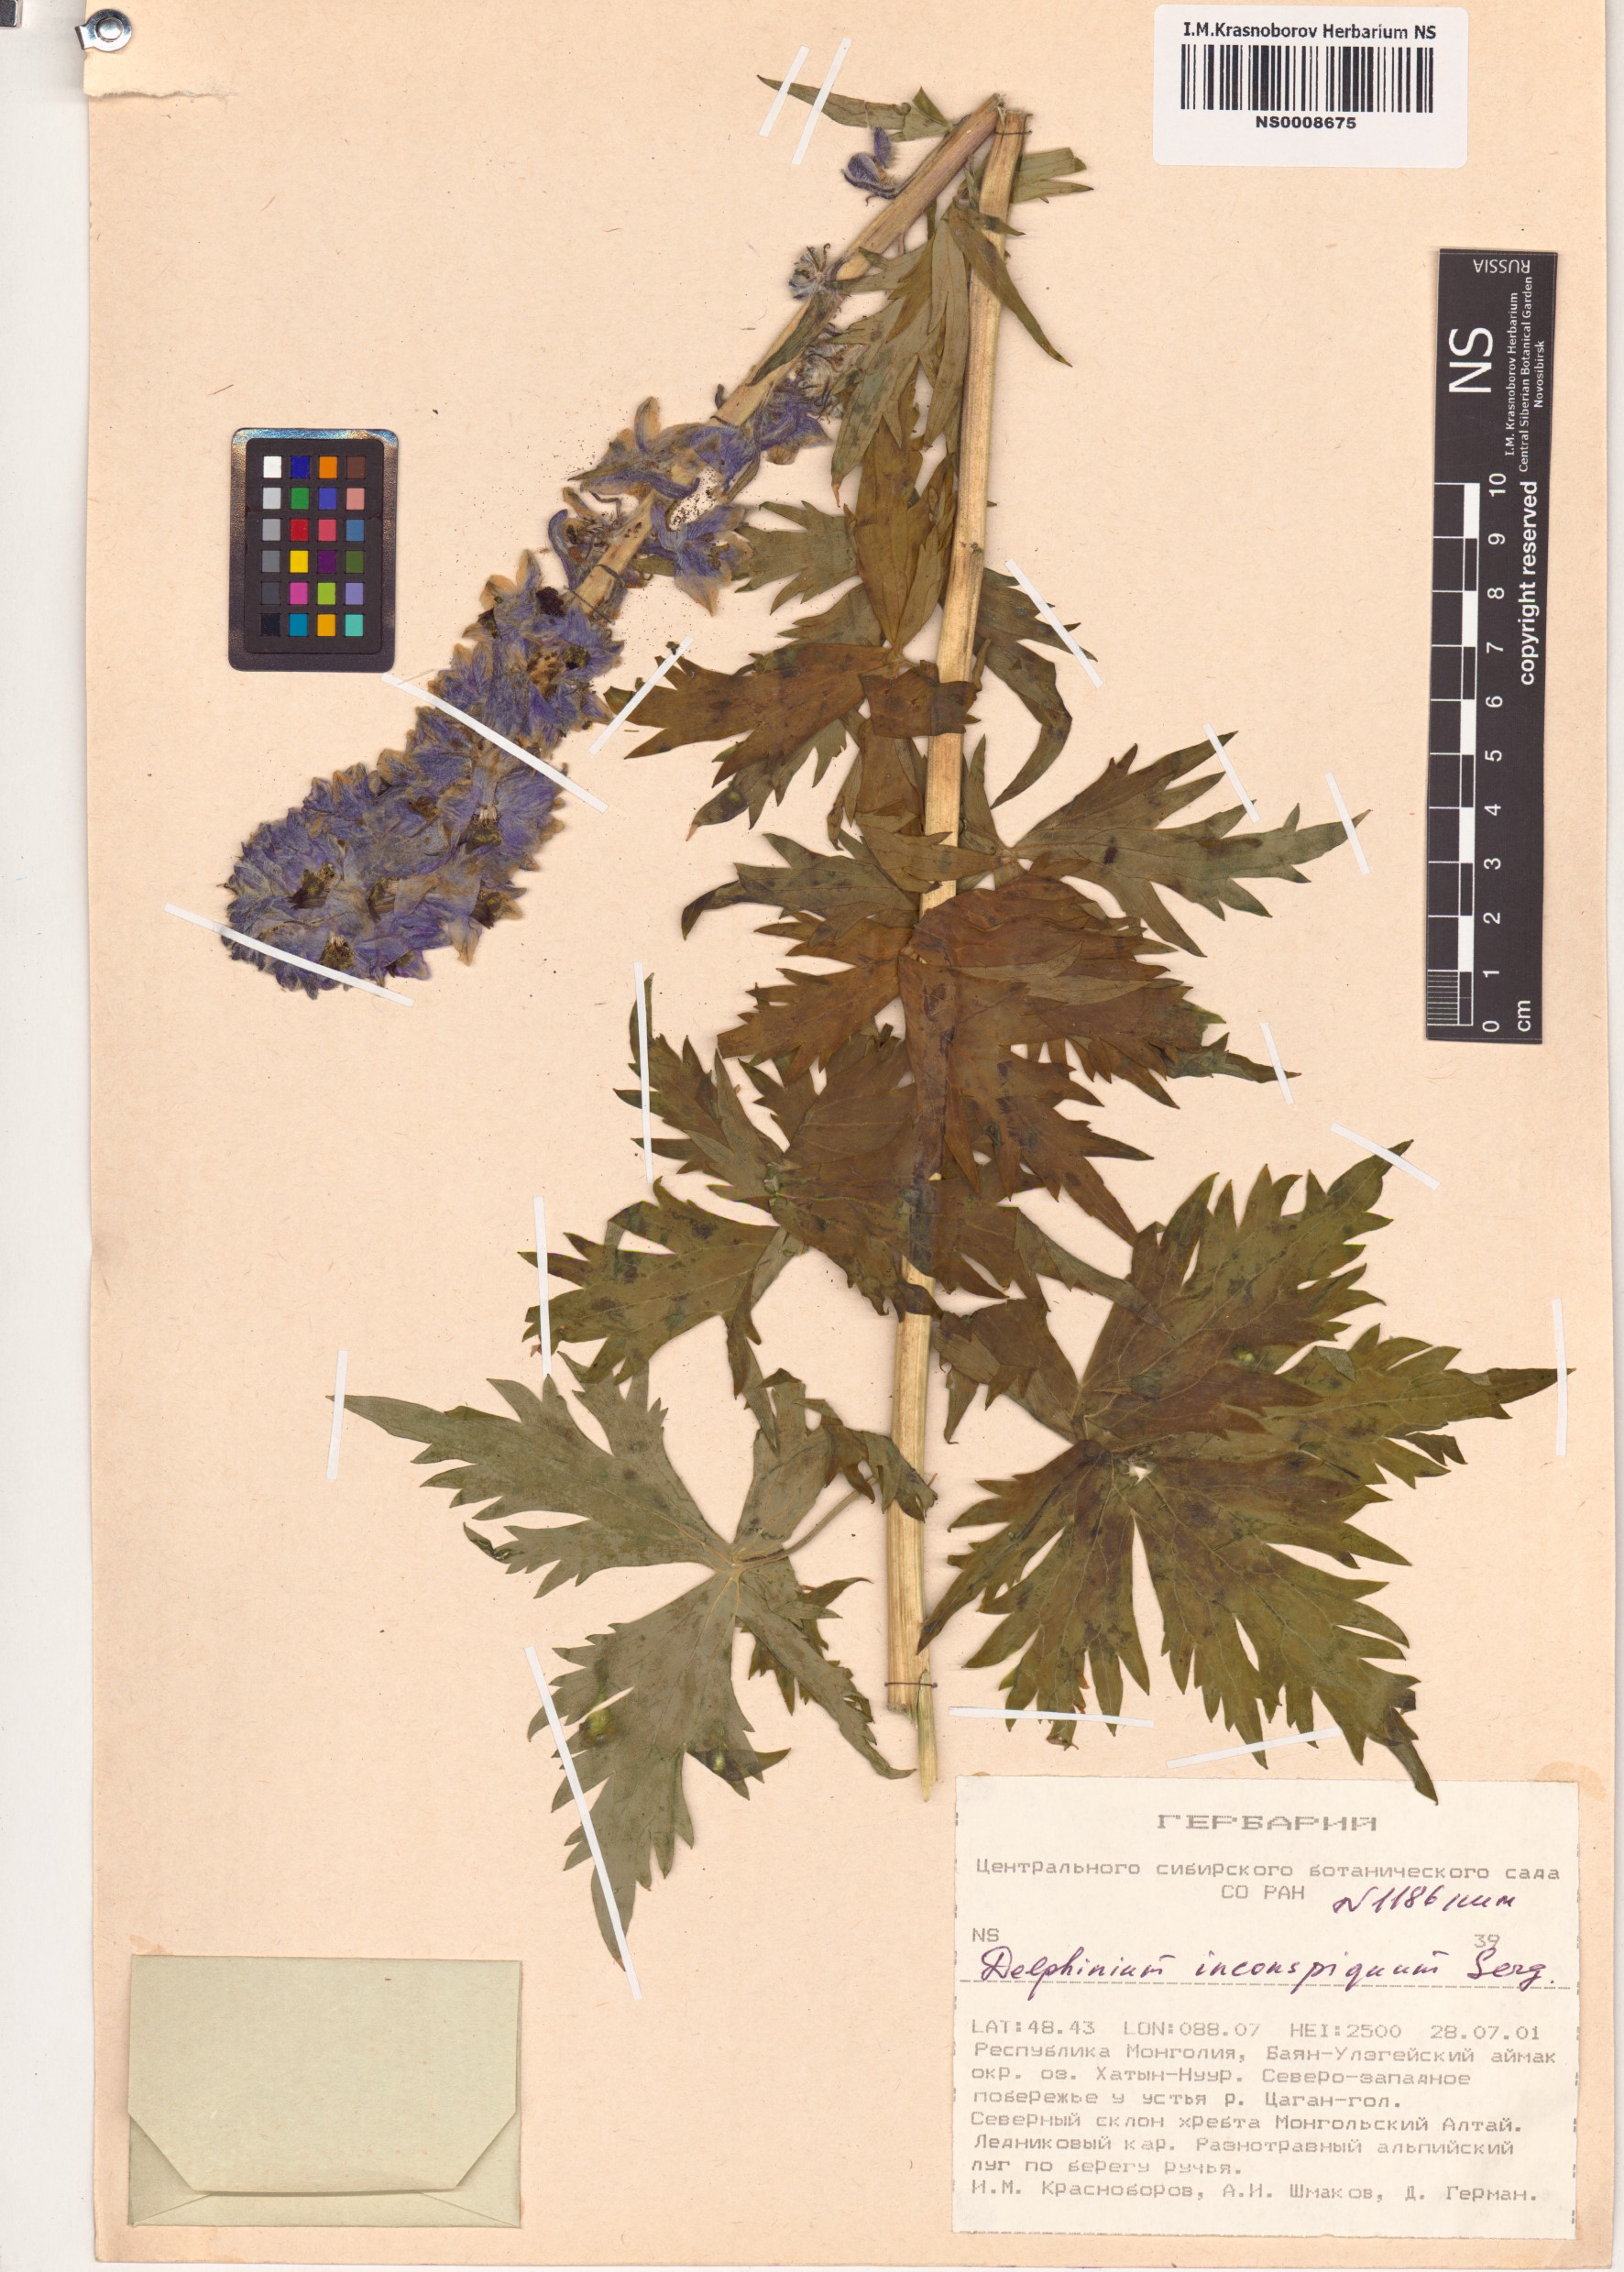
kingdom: Plantae
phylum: Tracheophyta
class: Magnoliopsida
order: Ranunculales
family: Ranunculaceae
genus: Delphinium
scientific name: Delphinium inconspicuum
